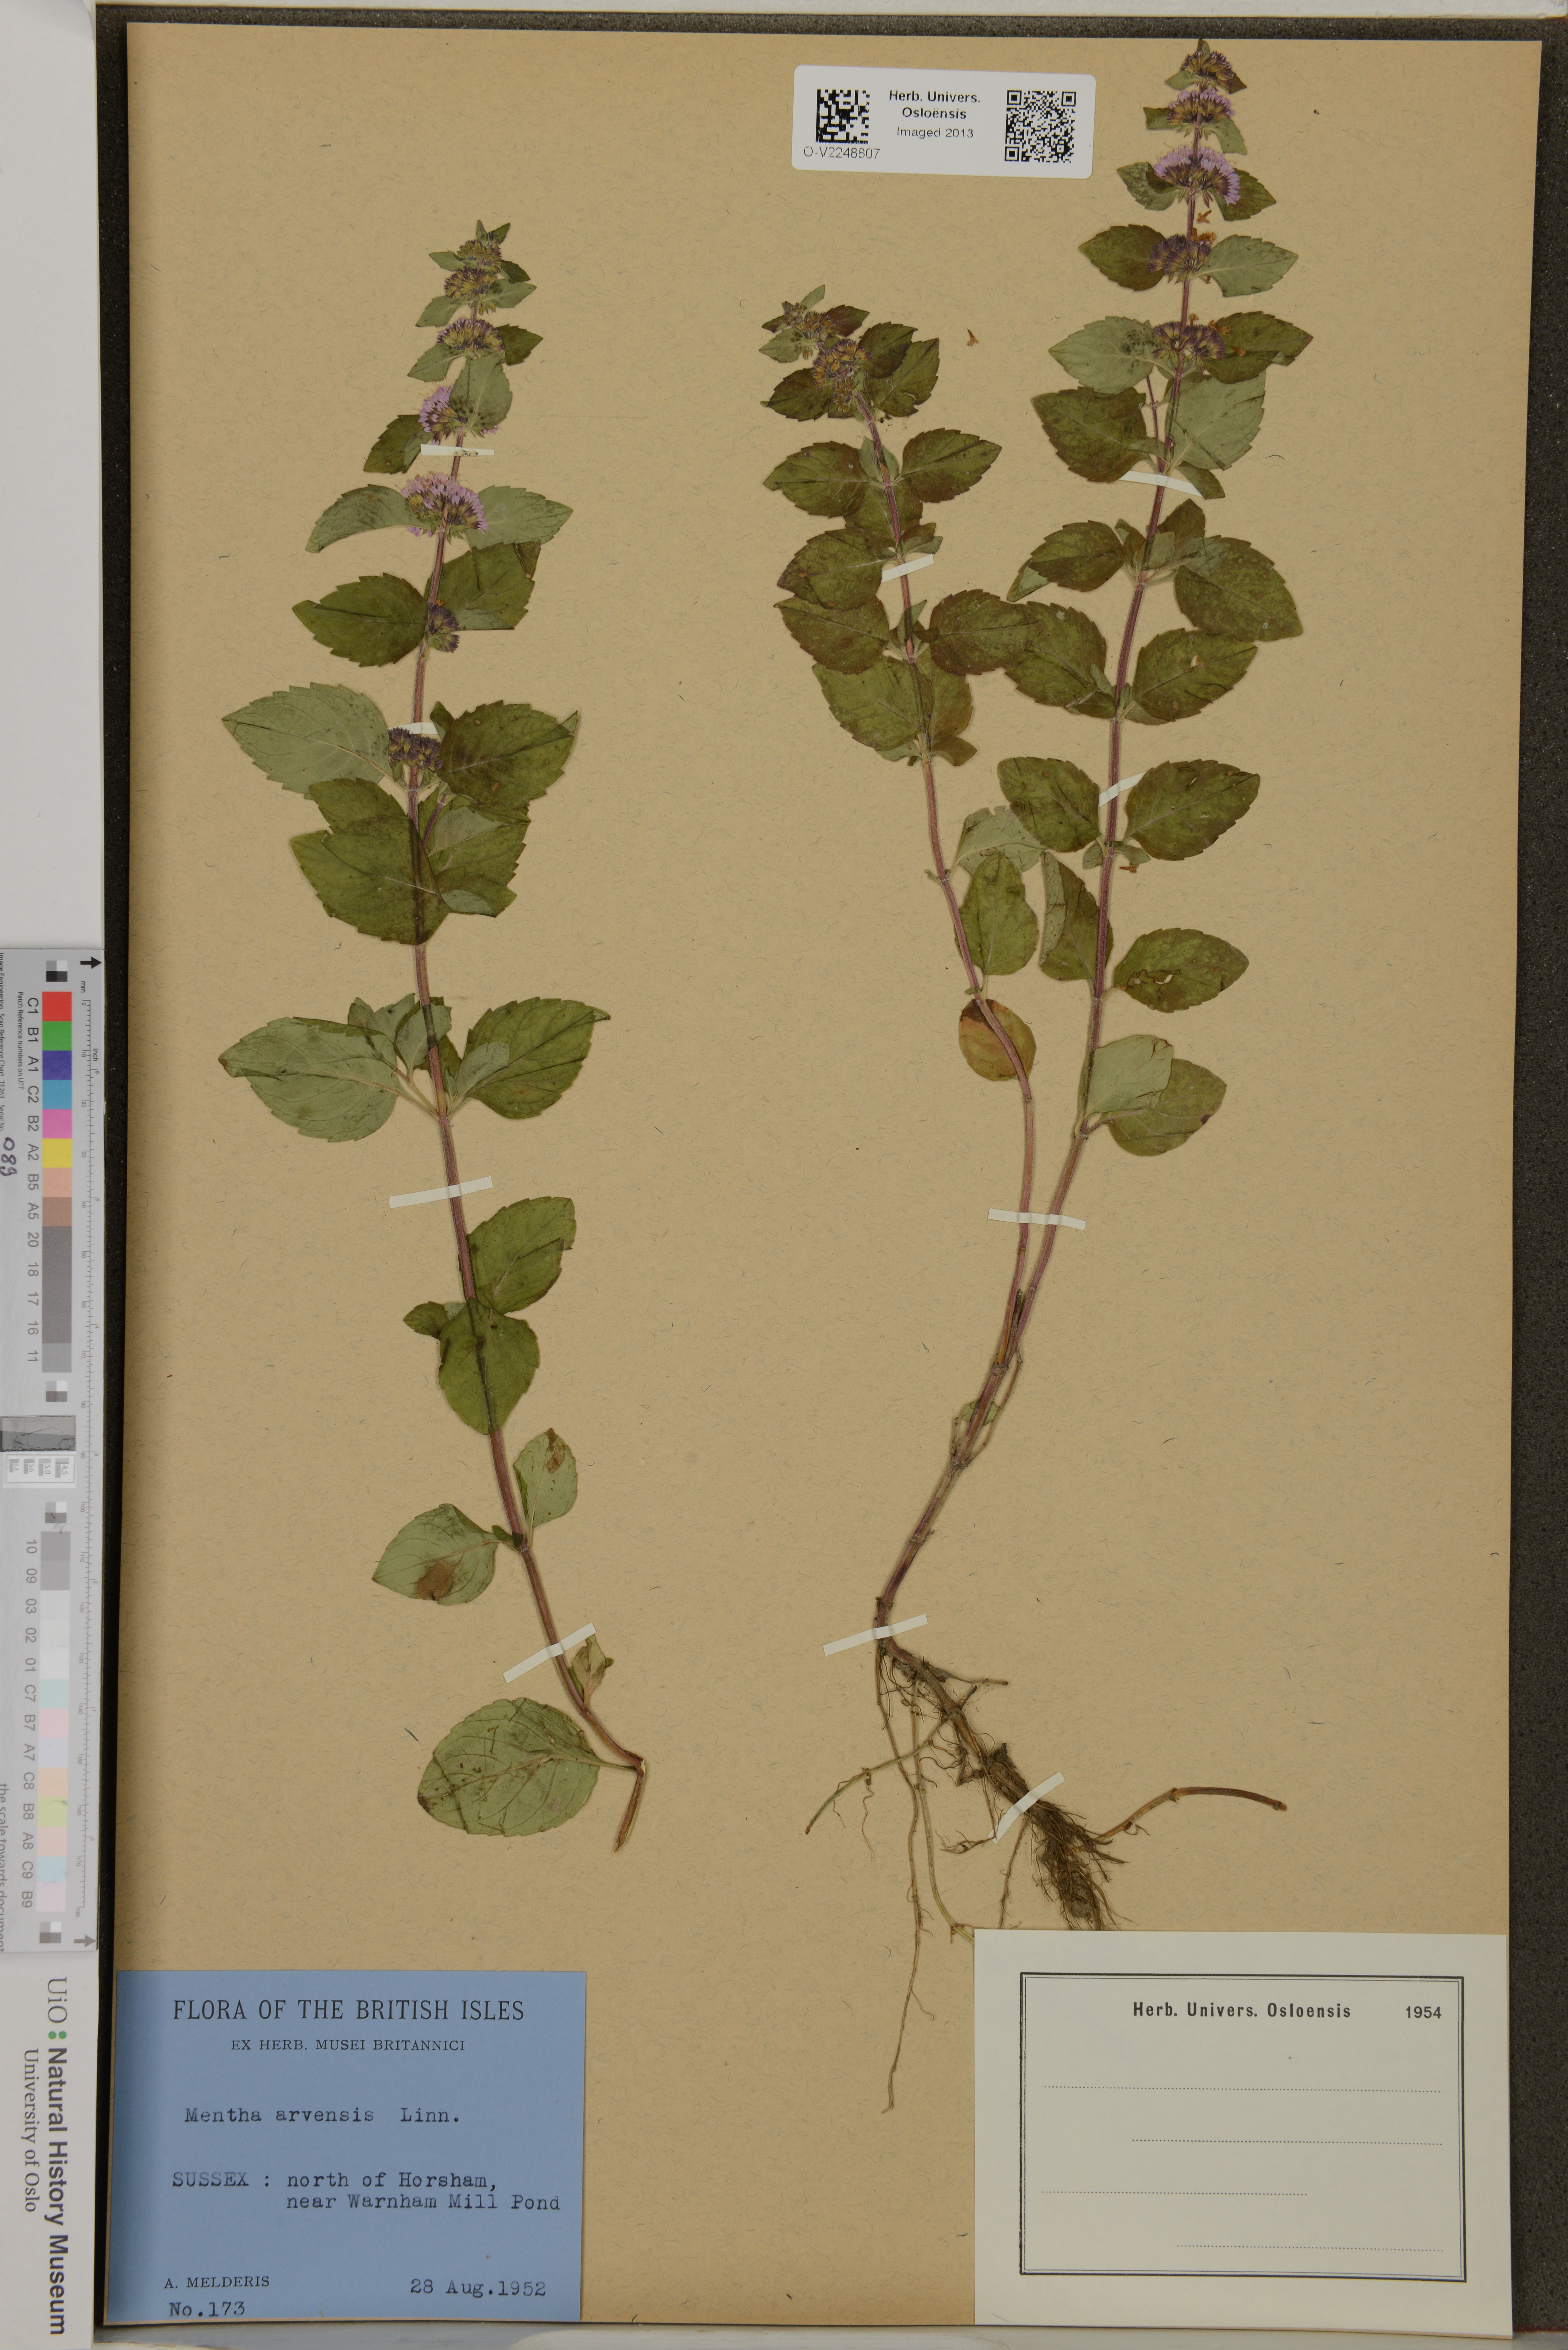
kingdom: Plantae
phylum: Tracheophyta
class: Magnoliopsida
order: Lamiales
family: Lamiaceae
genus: Mentha
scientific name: Mentha arvensis
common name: Corn mint
